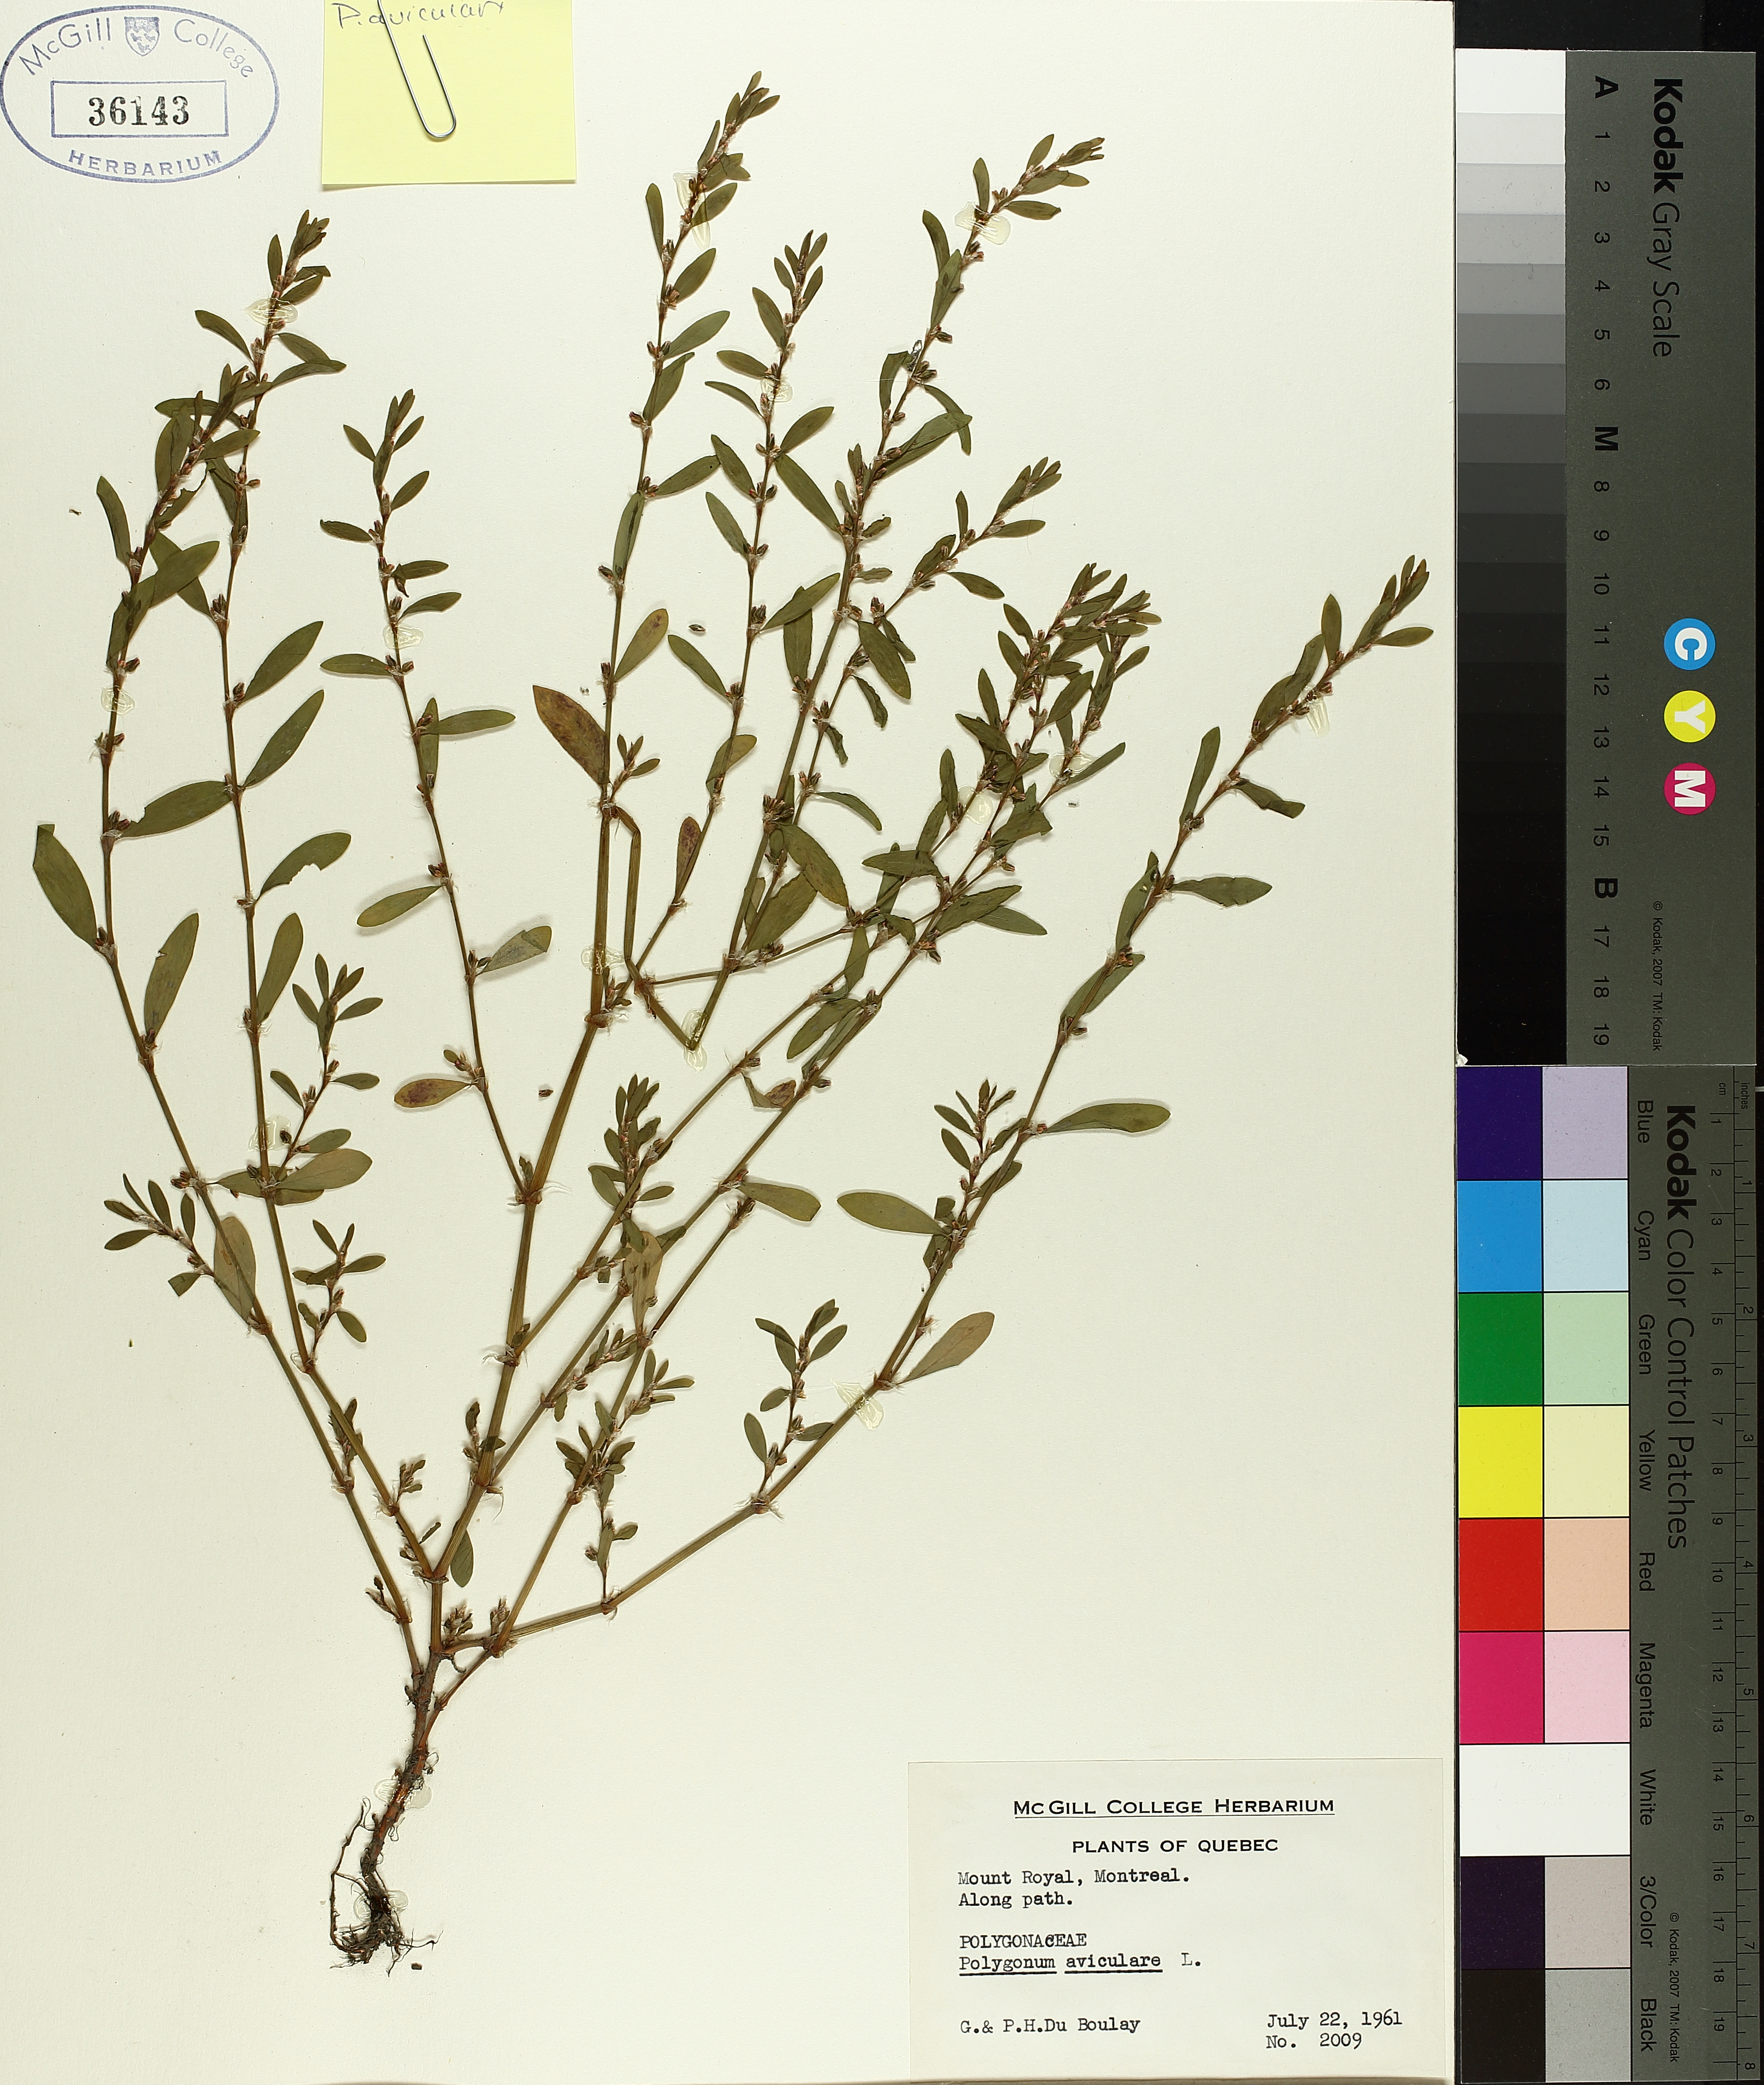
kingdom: Plantae
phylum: Tracheophyta
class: Magnoliopsida
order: Caryophyllales
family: Polygonaceae
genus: Polygonum
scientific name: Polygonum aviculare
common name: Prostrate knotweed
